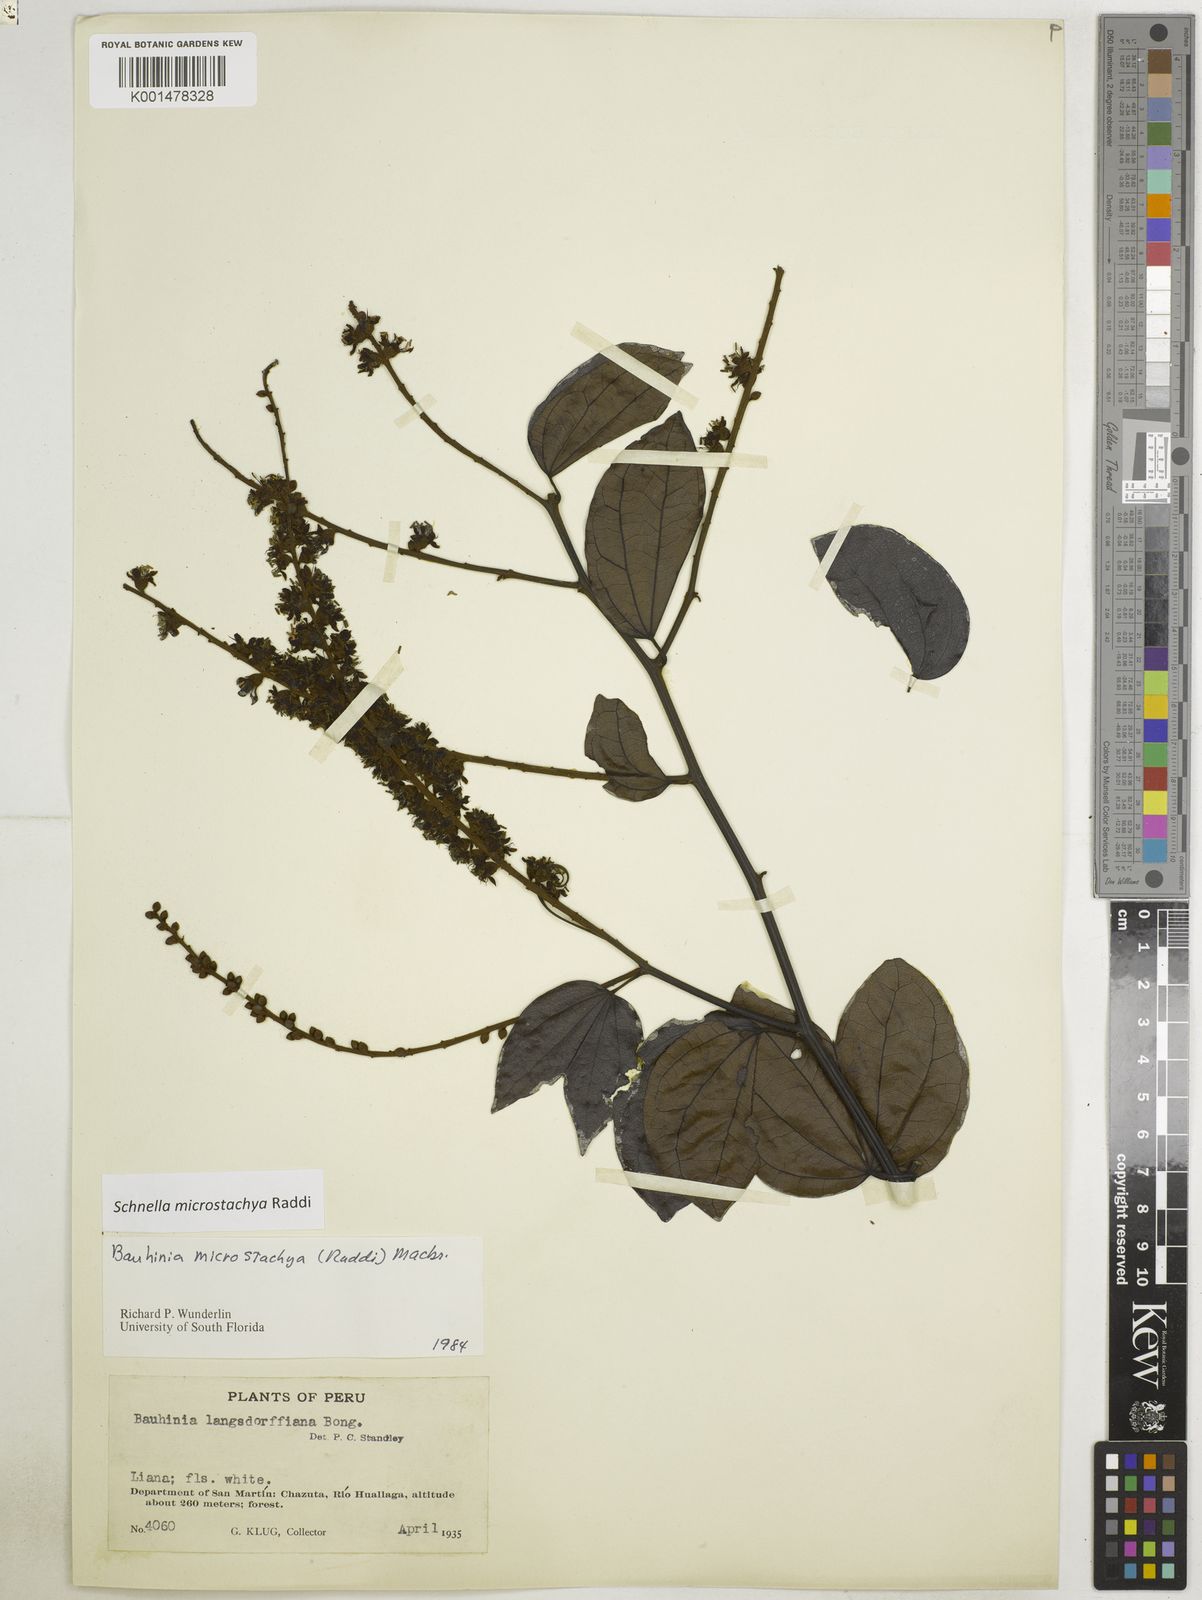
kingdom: Plantae
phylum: Tracheophyta
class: Magnoliopsida
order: Fabales
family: Fabaceae
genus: Schnella
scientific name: Schnella microstachya
